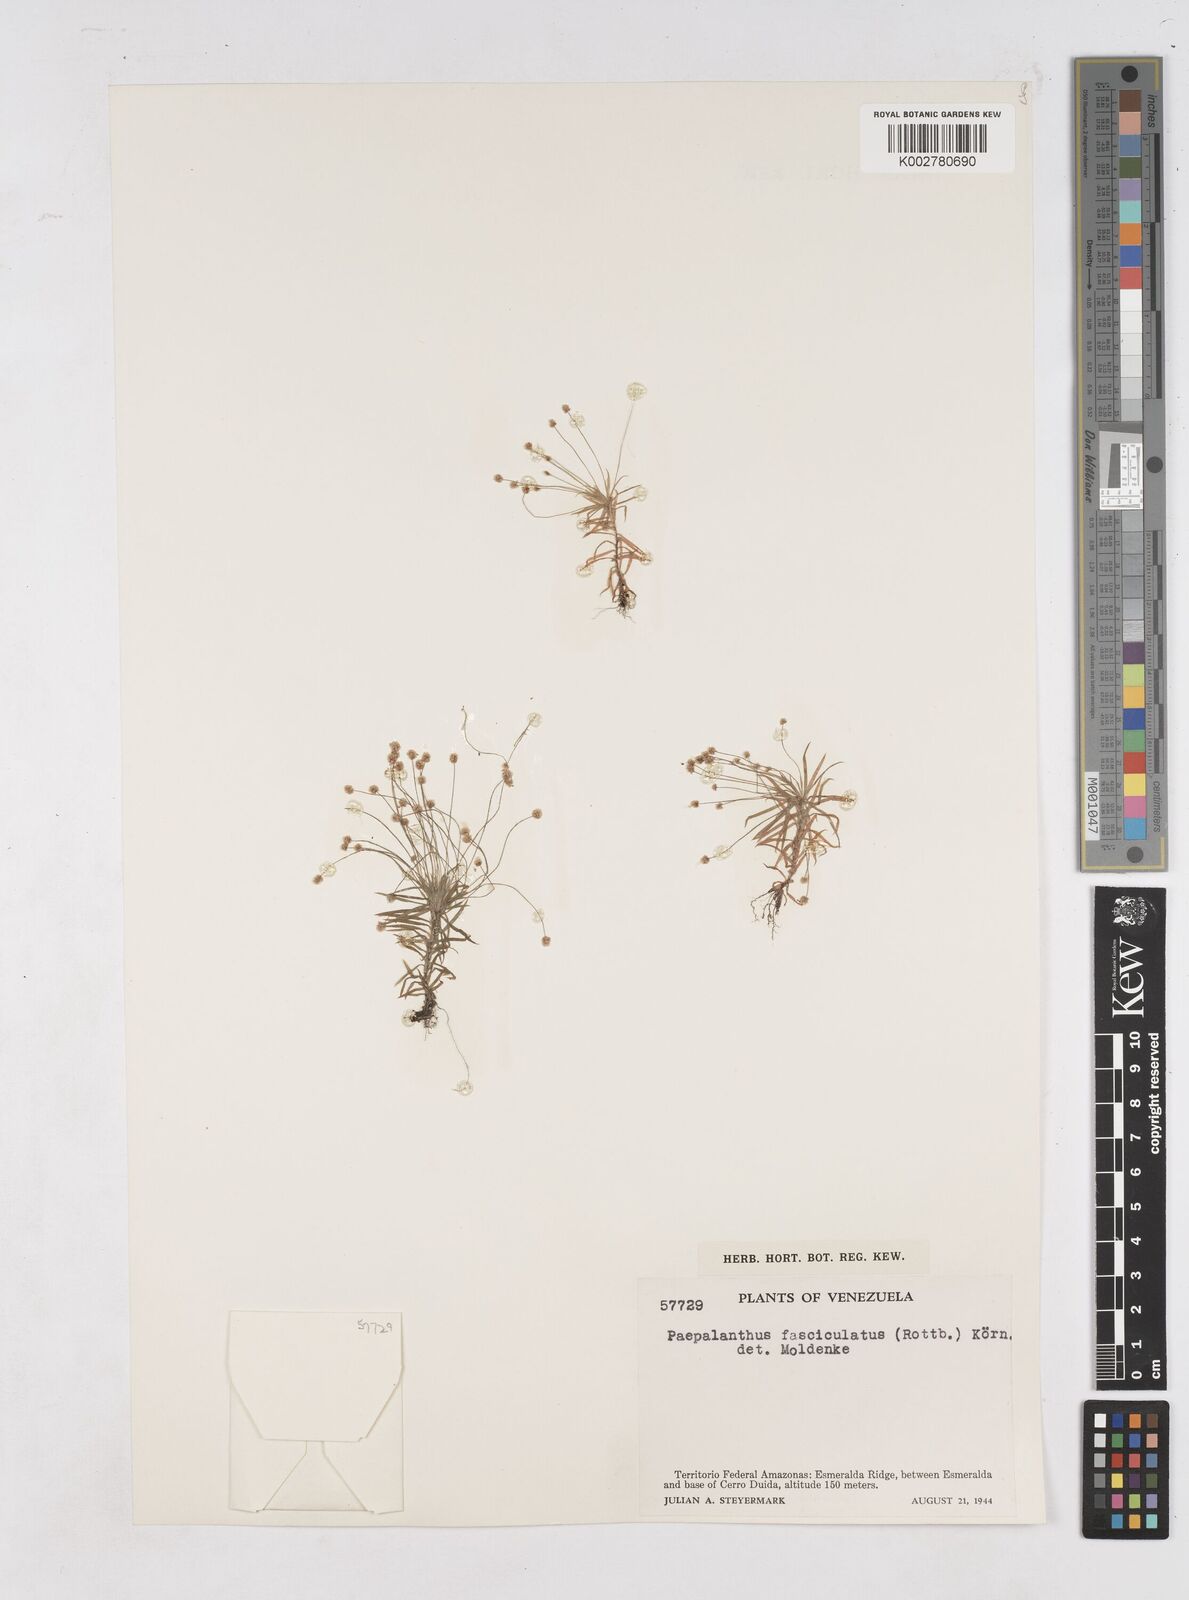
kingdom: Plantae
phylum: Tracheophyta
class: Liliopsida
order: Poales
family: Eriocaulaceae
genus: Paepalanthus
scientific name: Paepalanthus fasciculatus
